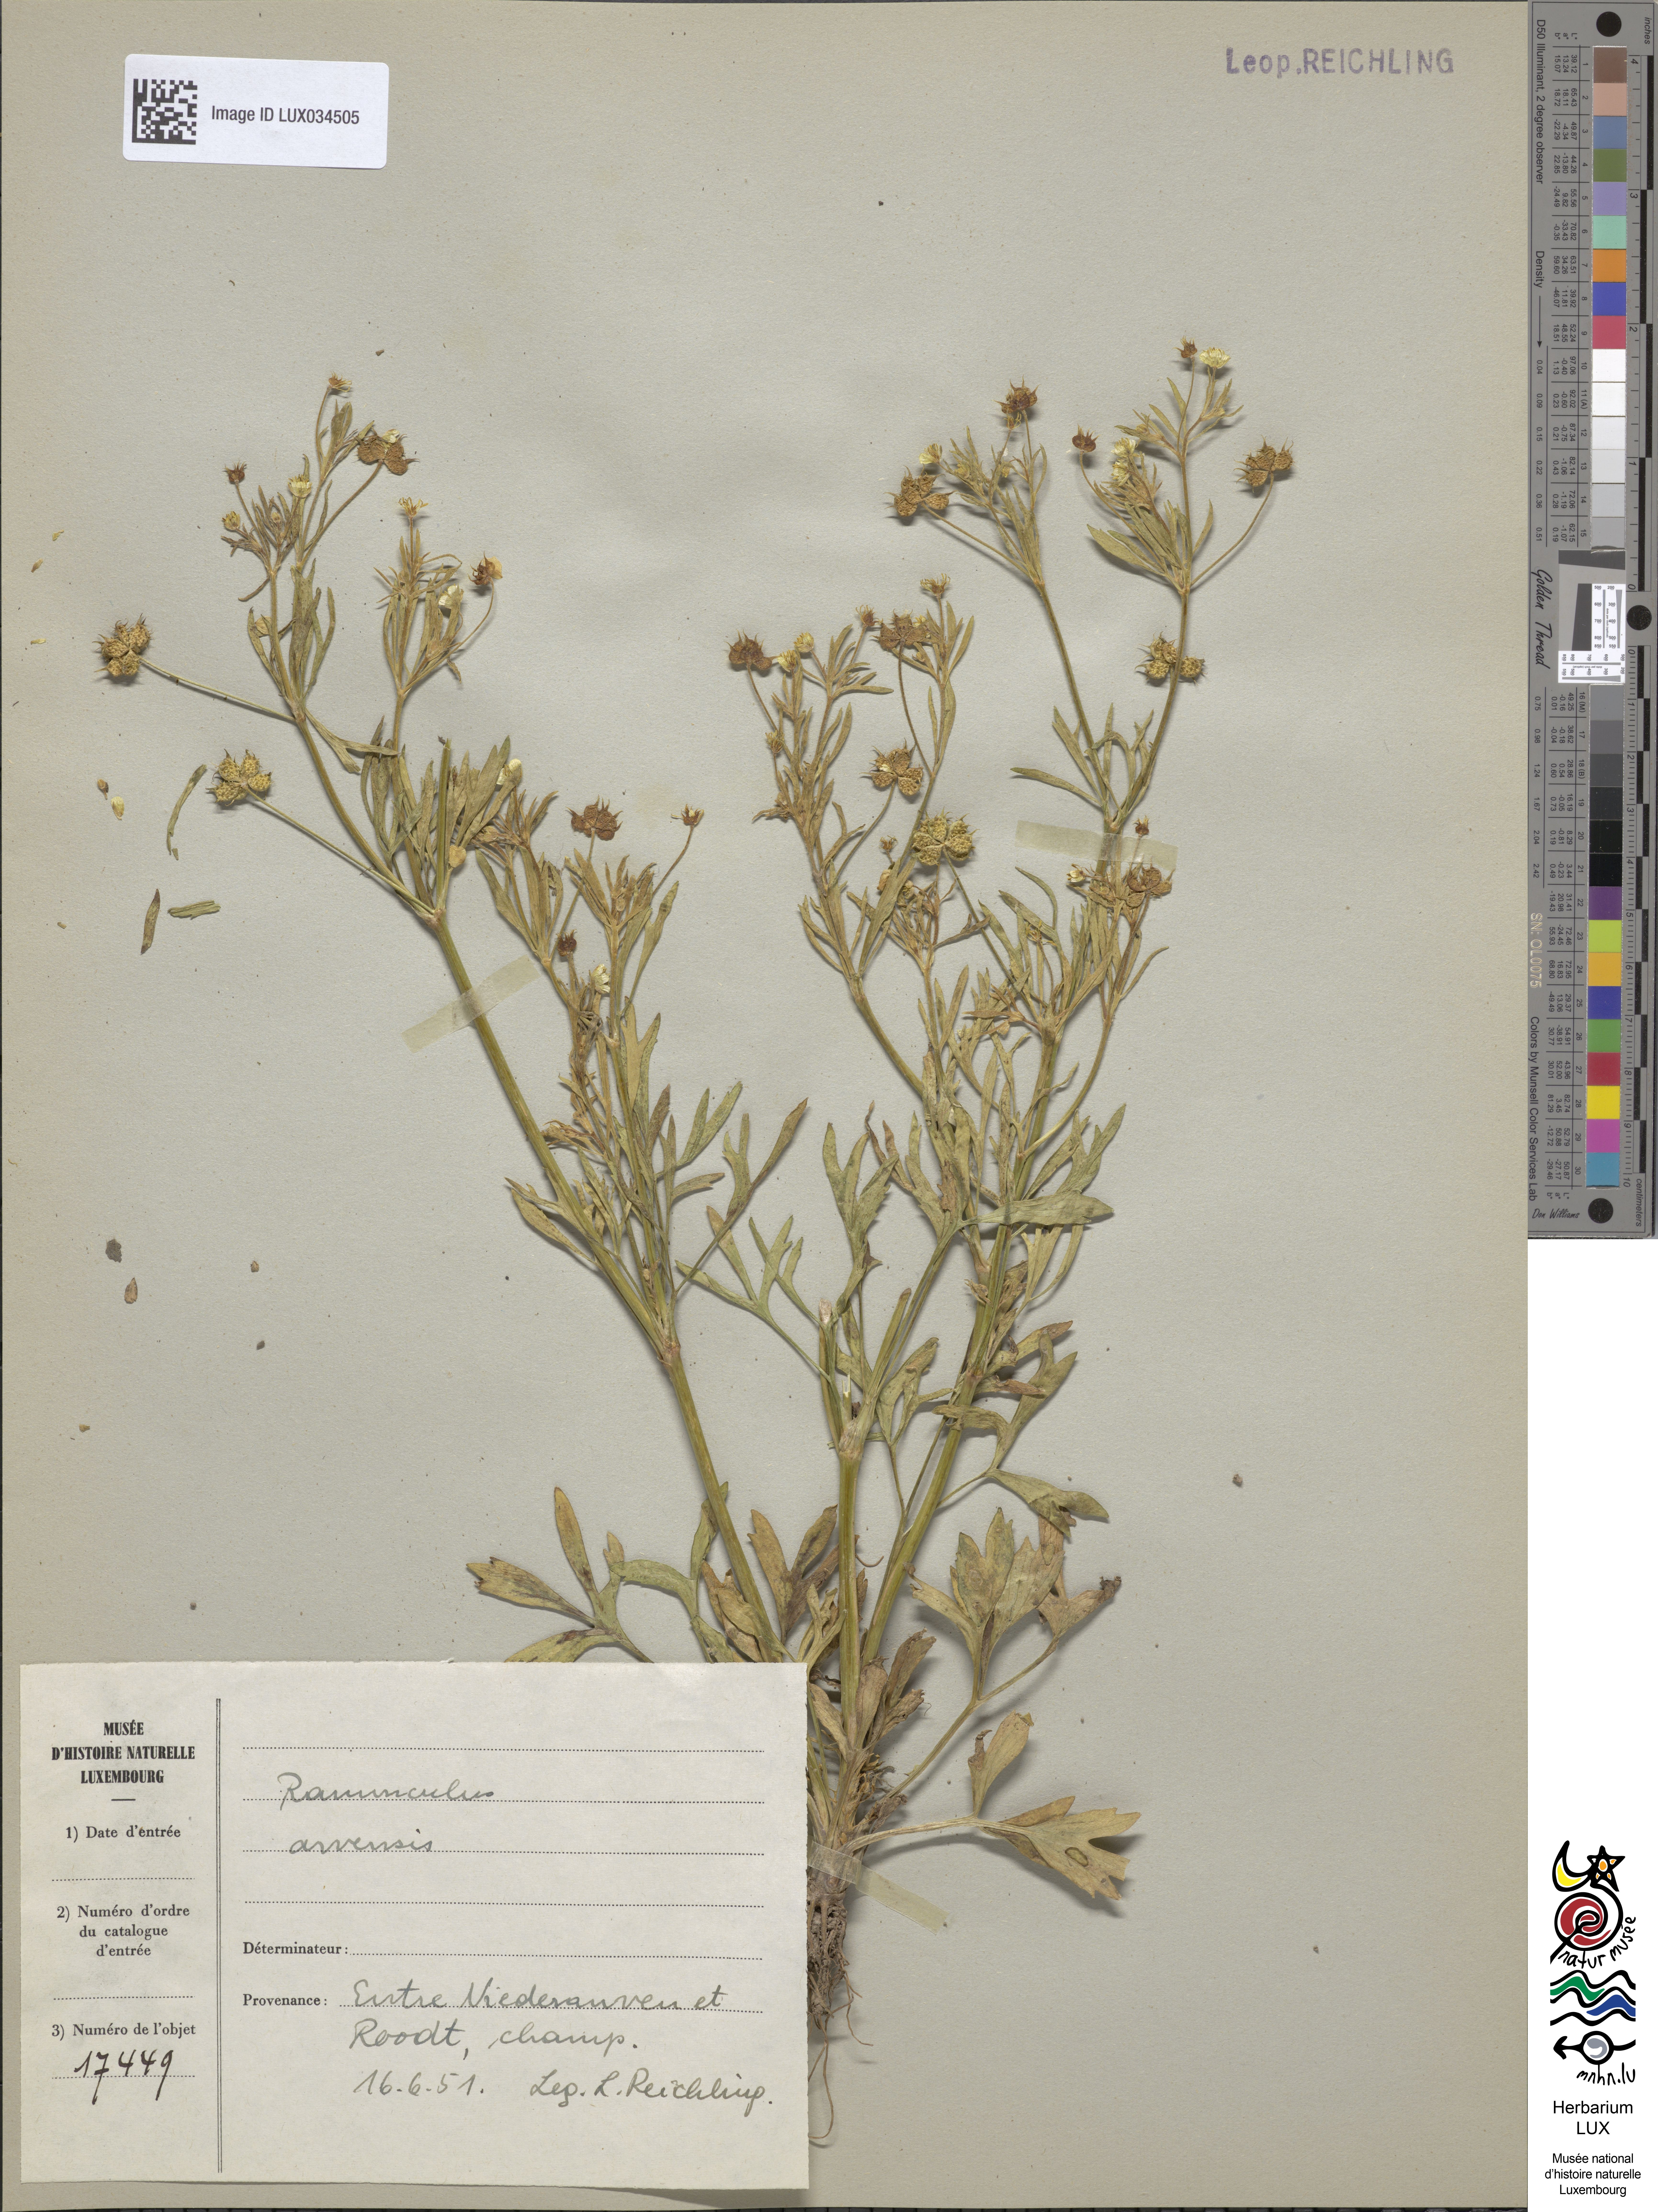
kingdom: Plantae
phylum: Tracheophyta
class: Magnoliopsida
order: Ranunculales
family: Ranunculaceae
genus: Ranunculus
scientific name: Ranunculus arvensis
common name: Corn buttercup
